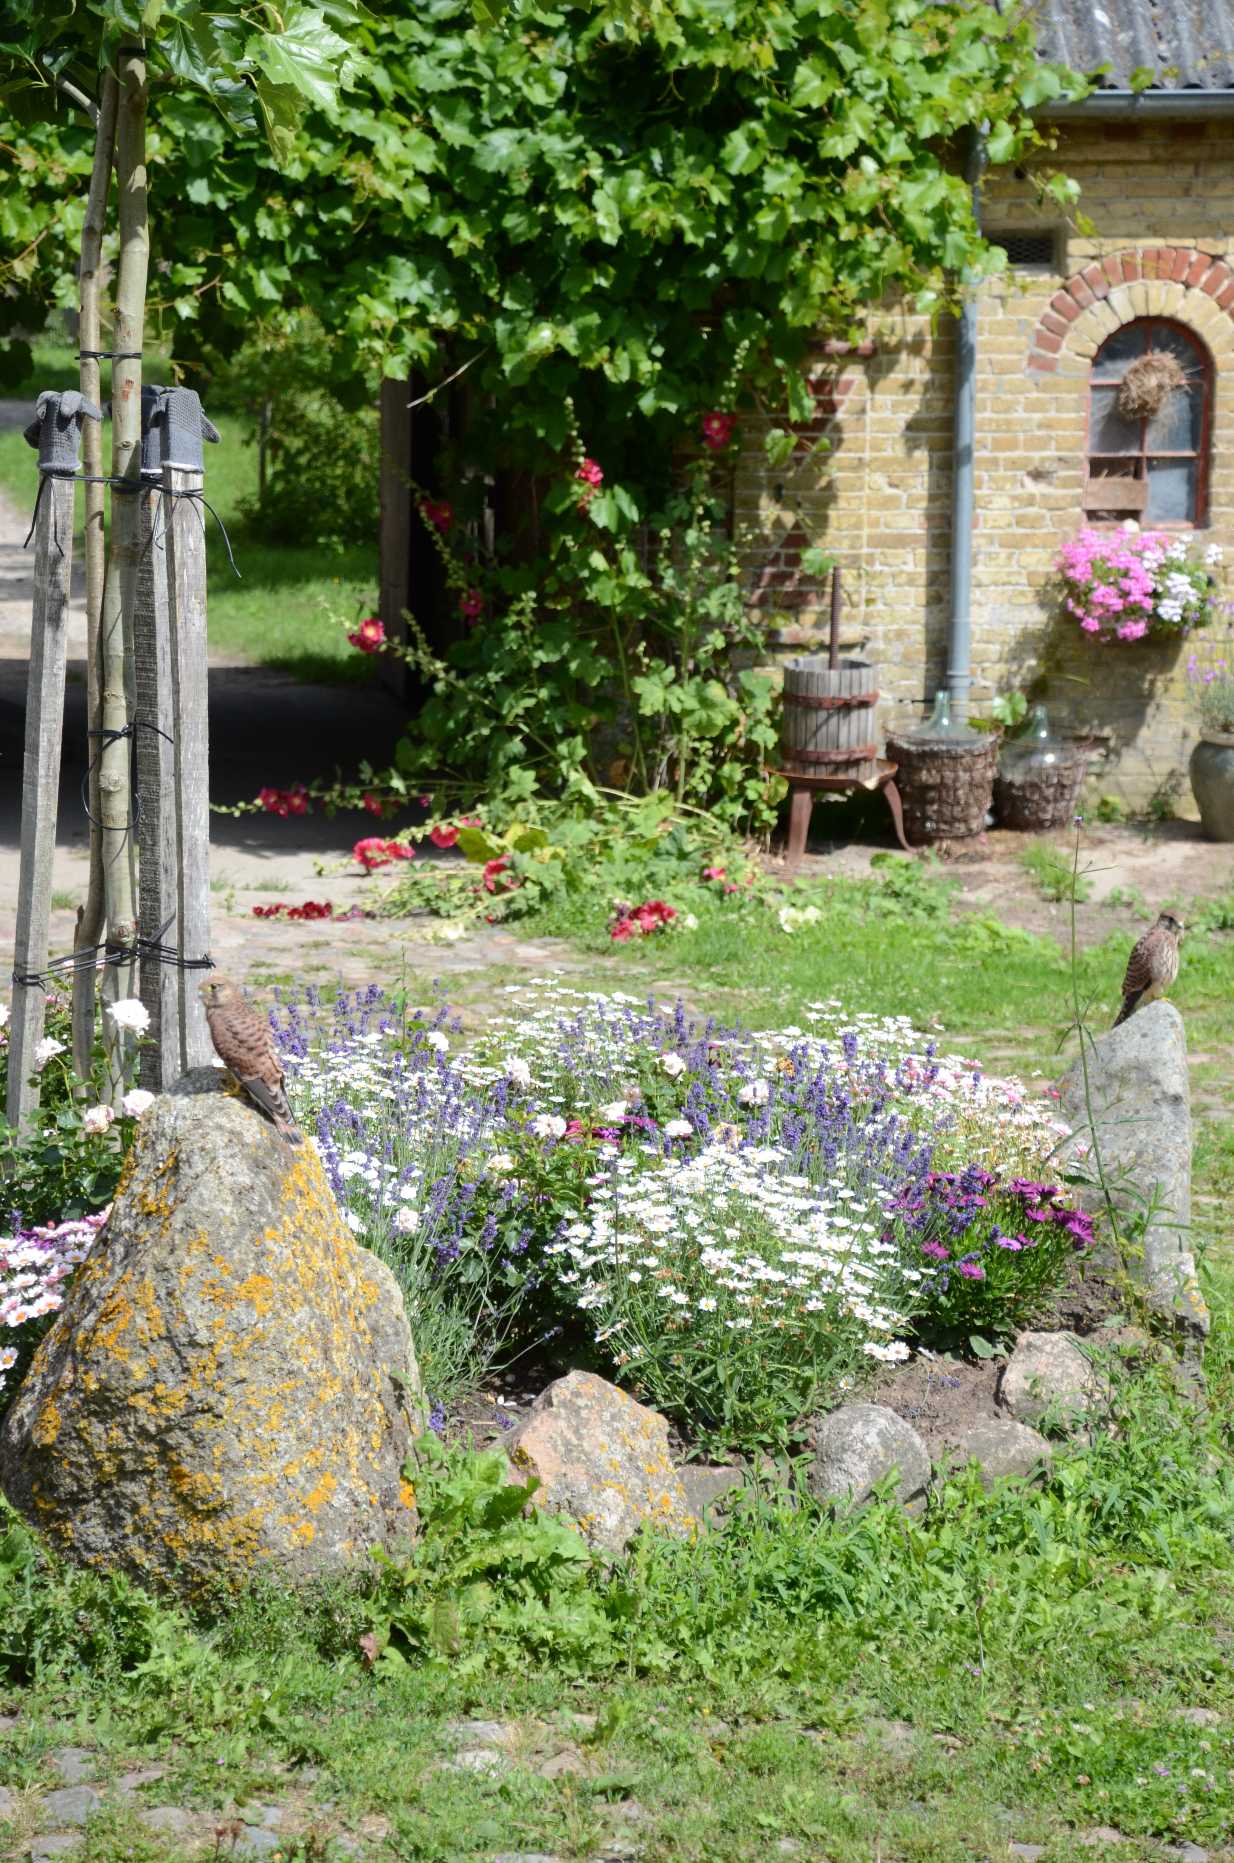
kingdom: Animalia
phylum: Chordata
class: Aves
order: Falconiformes
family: Falconidae
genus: Falco
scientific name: Falco tinnunculus
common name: Tårnfalk
